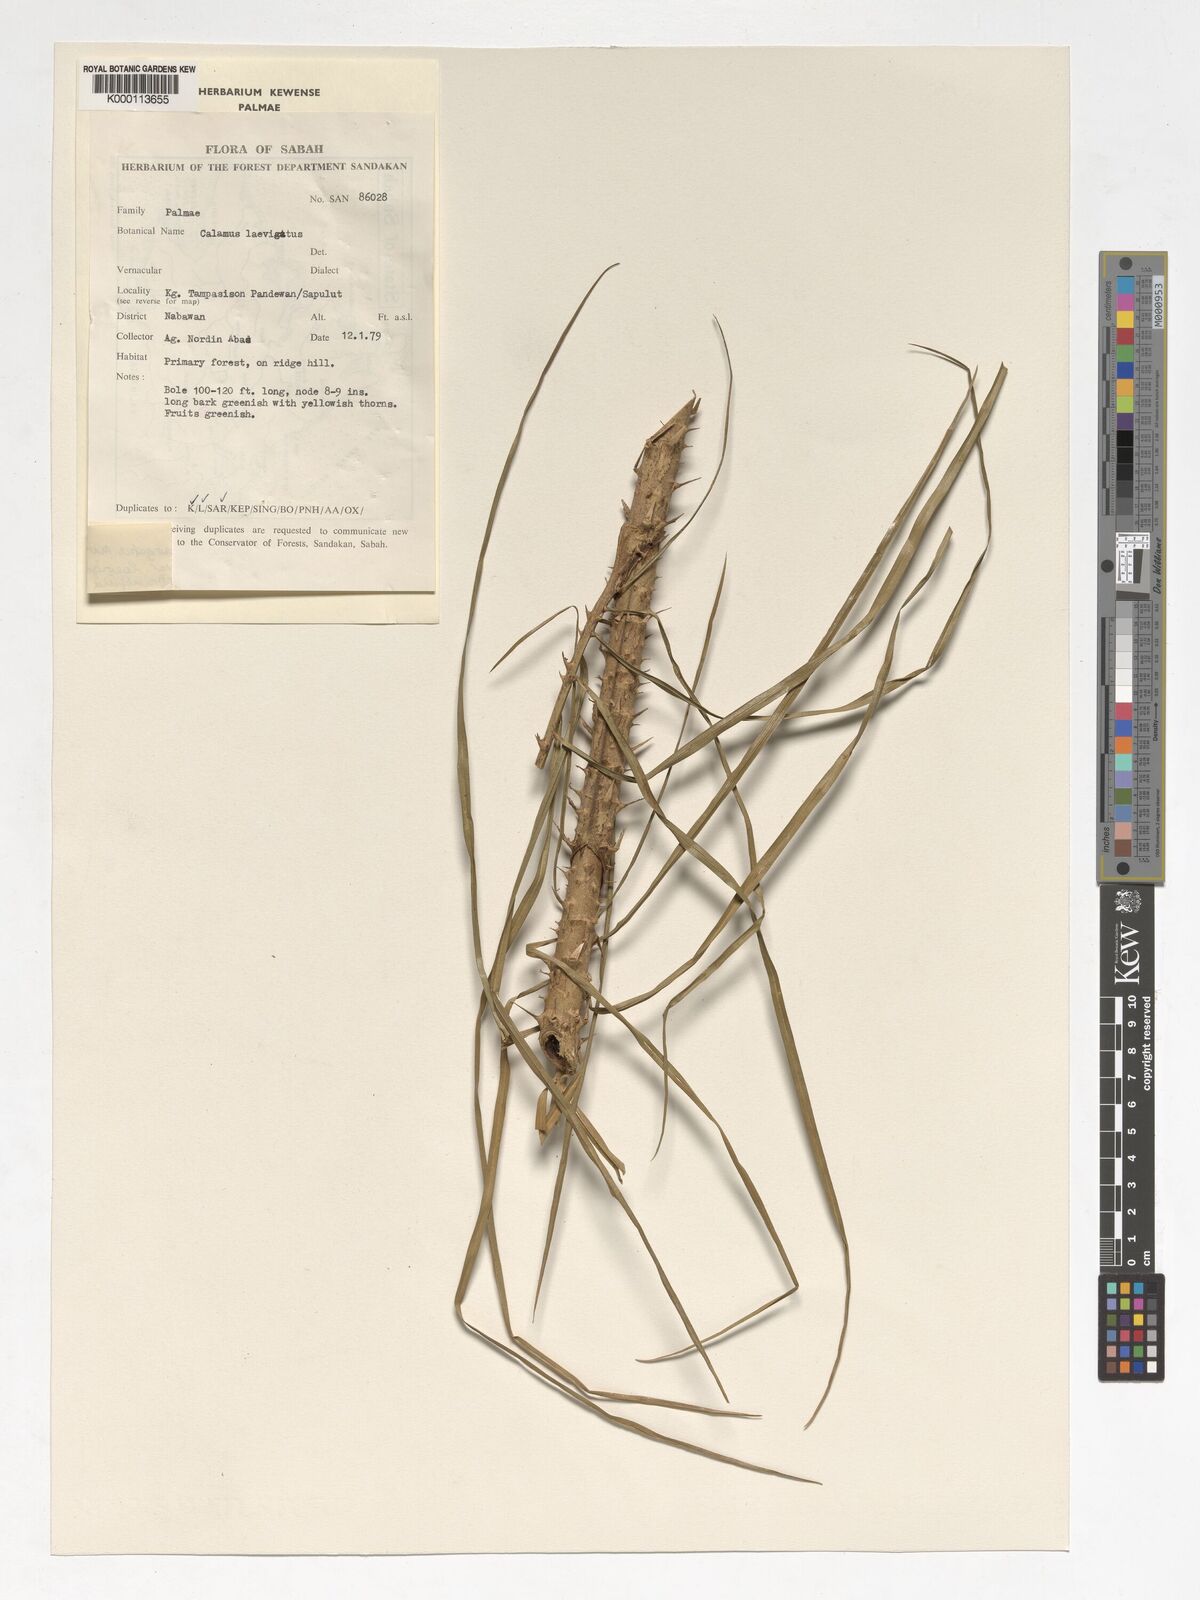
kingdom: Plantae
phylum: Tracheophyta
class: Liliopsida
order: Arecales
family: Arecaceae
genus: Calamus
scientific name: Calamus
